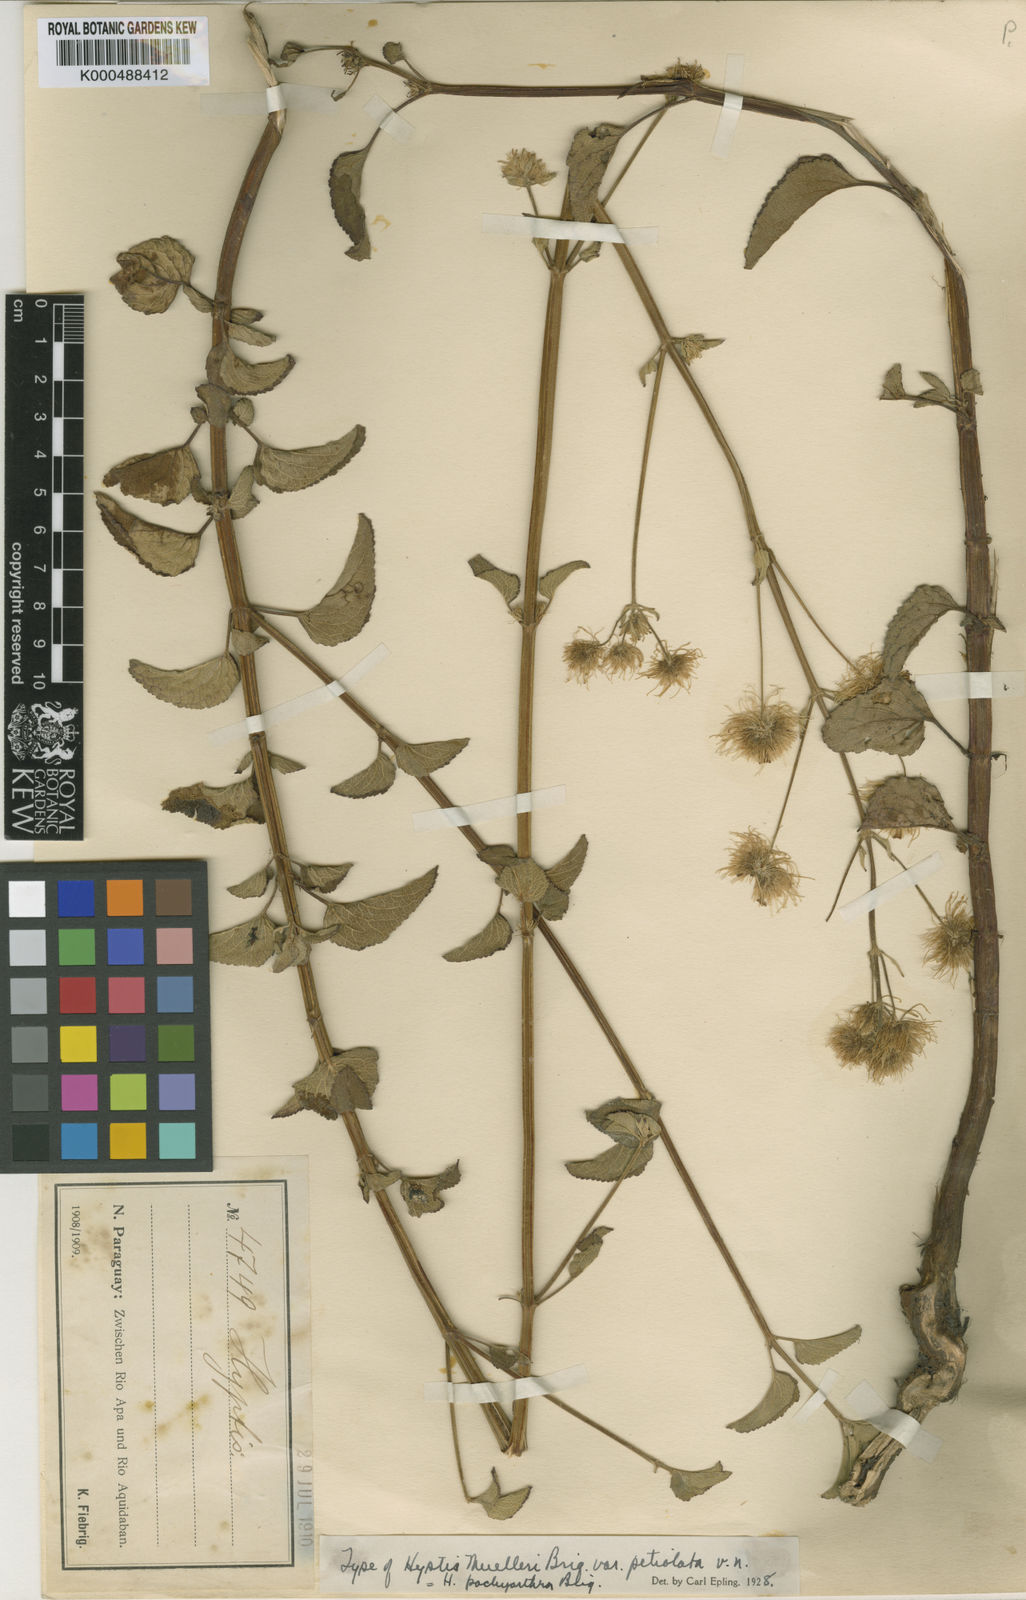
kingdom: Plantae
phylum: Tracheophyta
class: Magnoliopsida
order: Lamiales
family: Lamiaceae
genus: Hyptis
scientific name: Hyptis pachyarthra
